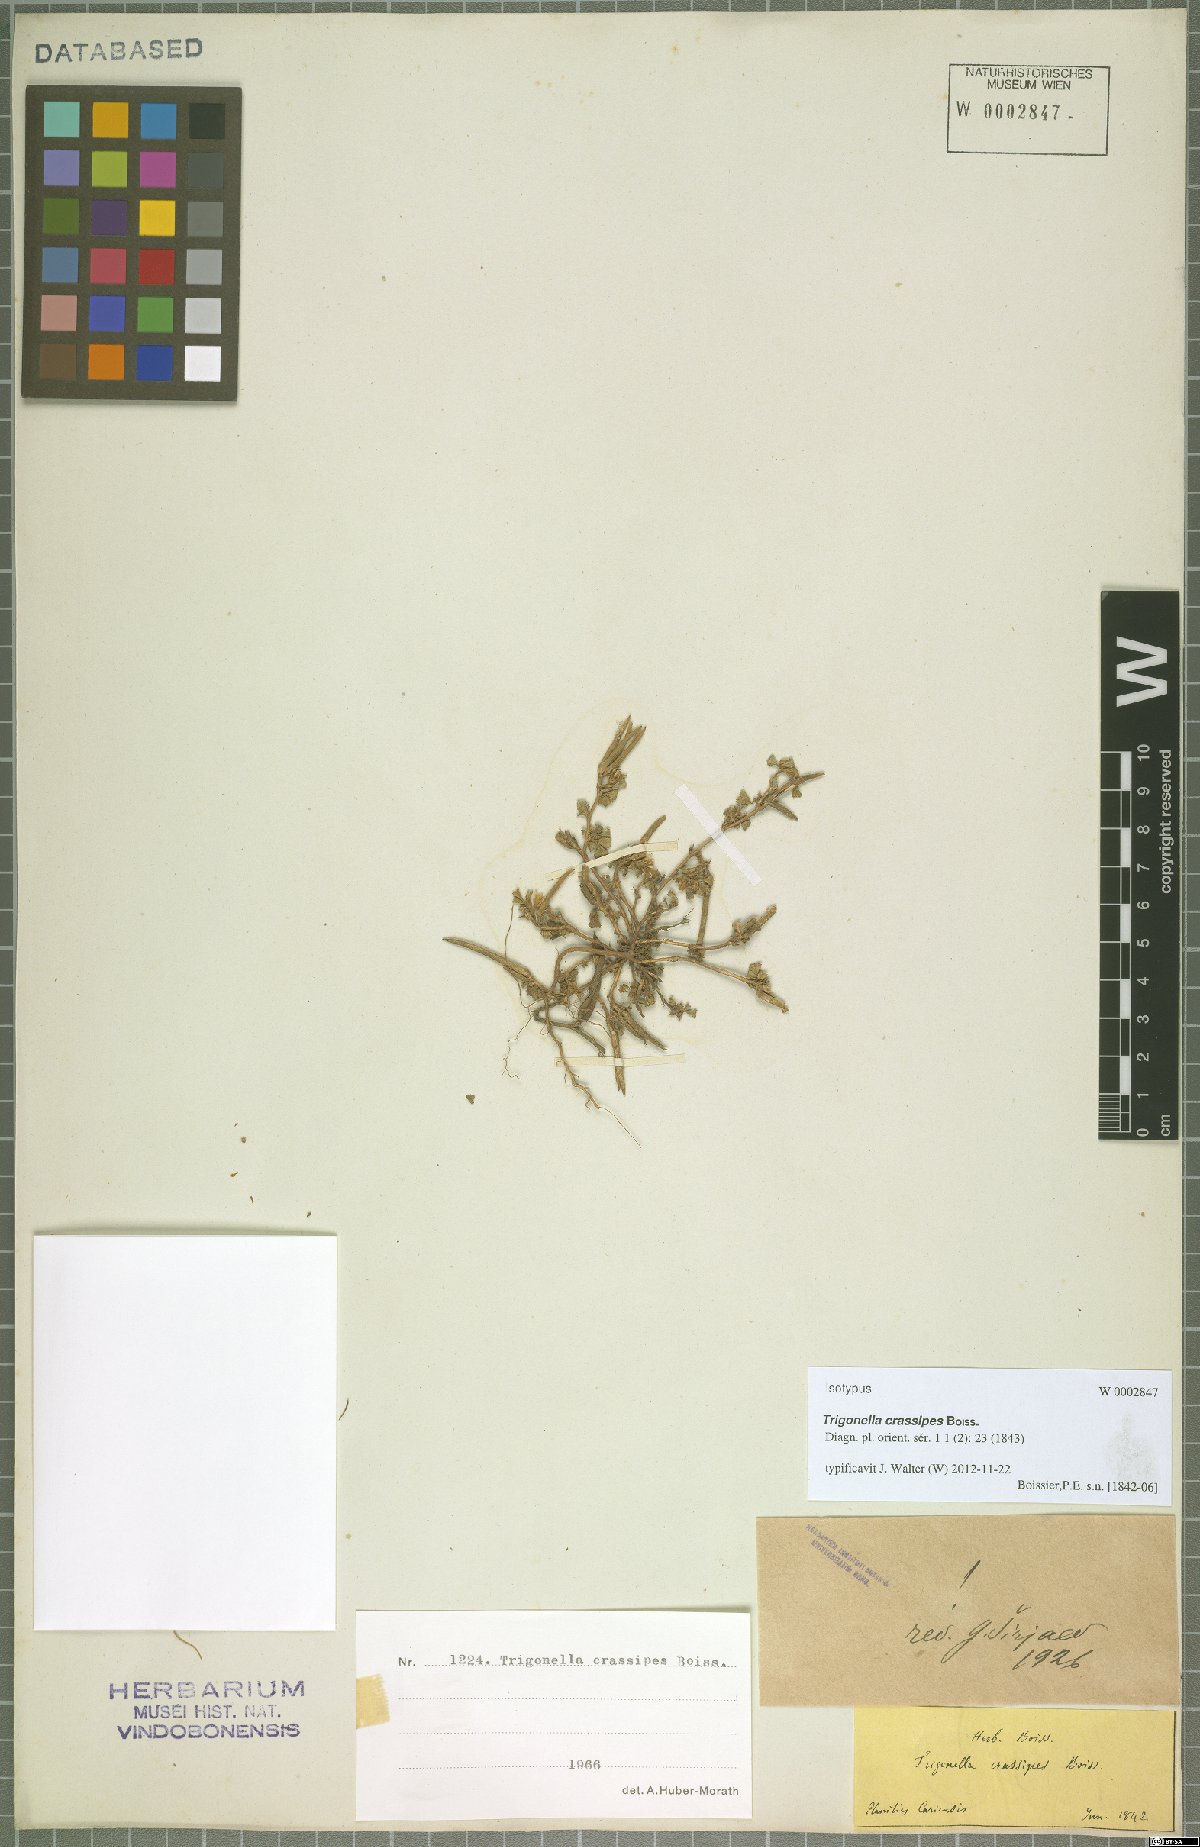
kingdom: Plantae
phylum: Tracheophyta
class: Magnoliopsida
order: Fabales
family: Fabaceae
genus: Medicago
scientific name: Medicago crassipes
